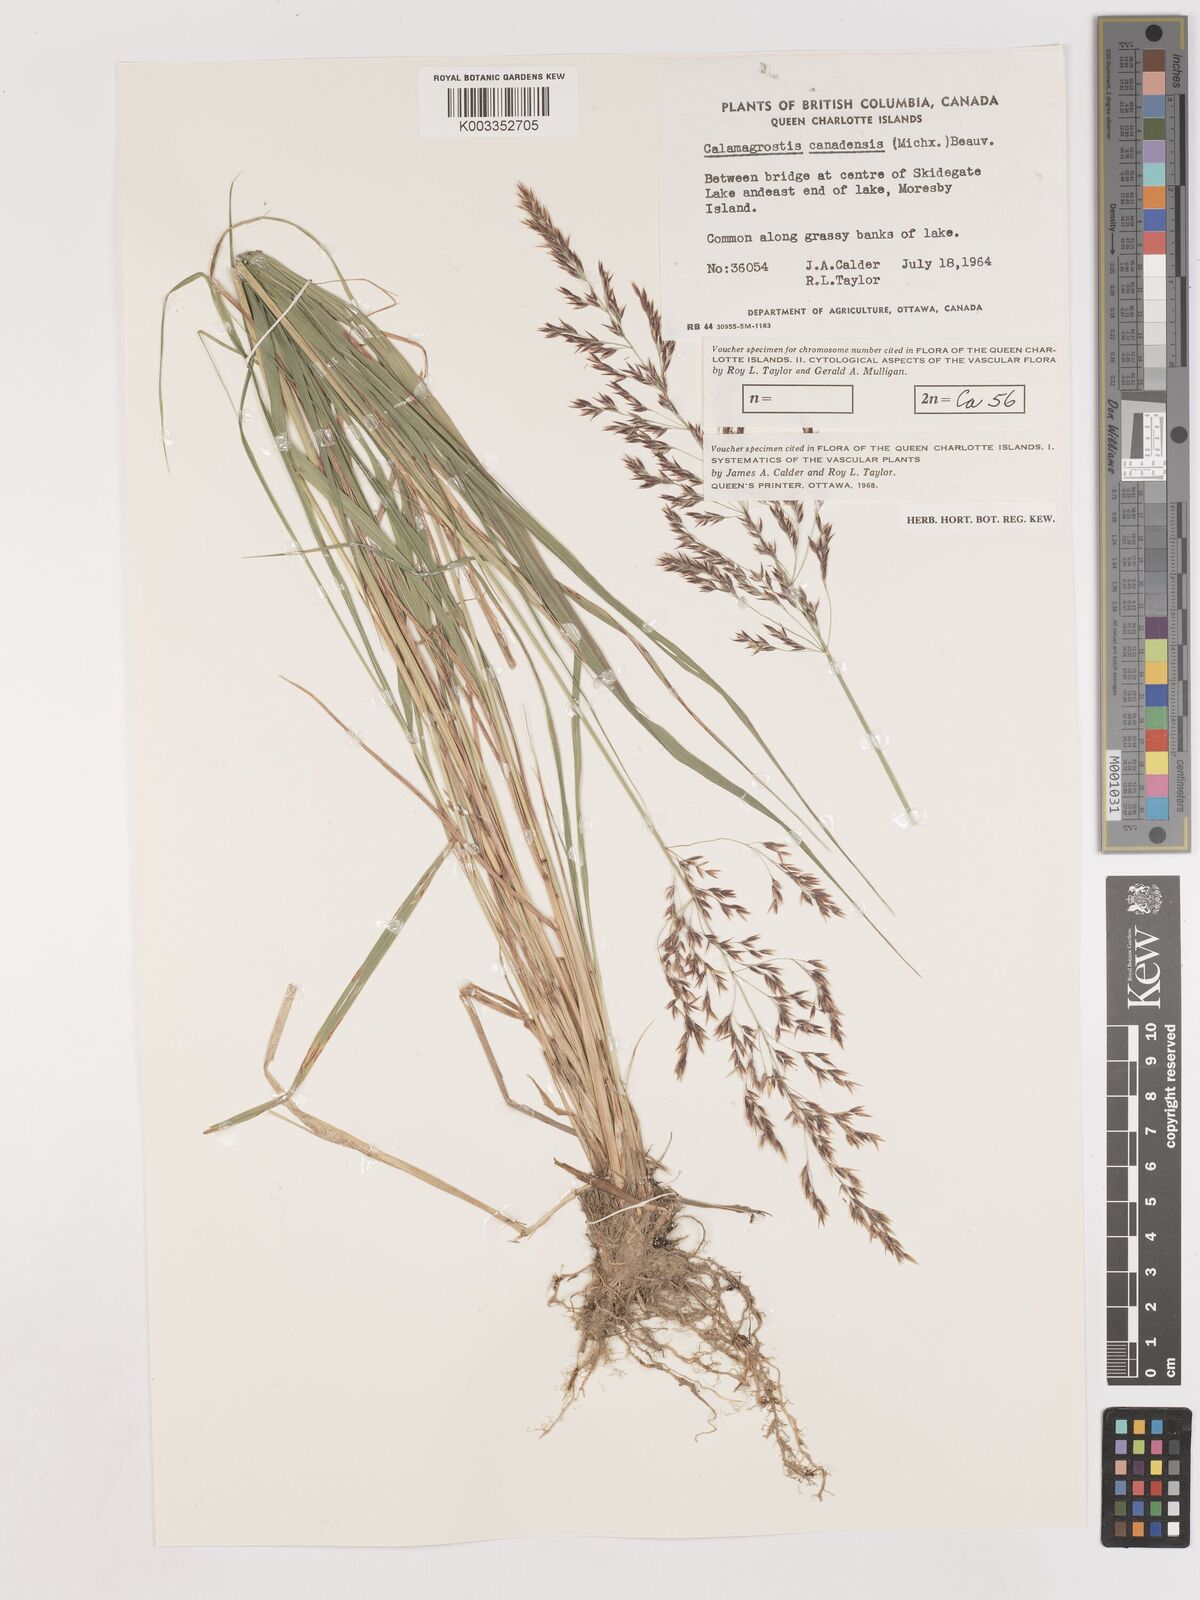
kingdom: Plantae
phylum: Tracheophyta
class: Liliopsida
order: Poales
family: Poaceae
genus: Calamagrostis
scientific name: Calamagrostis canadensis
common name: Canada bluejoint
